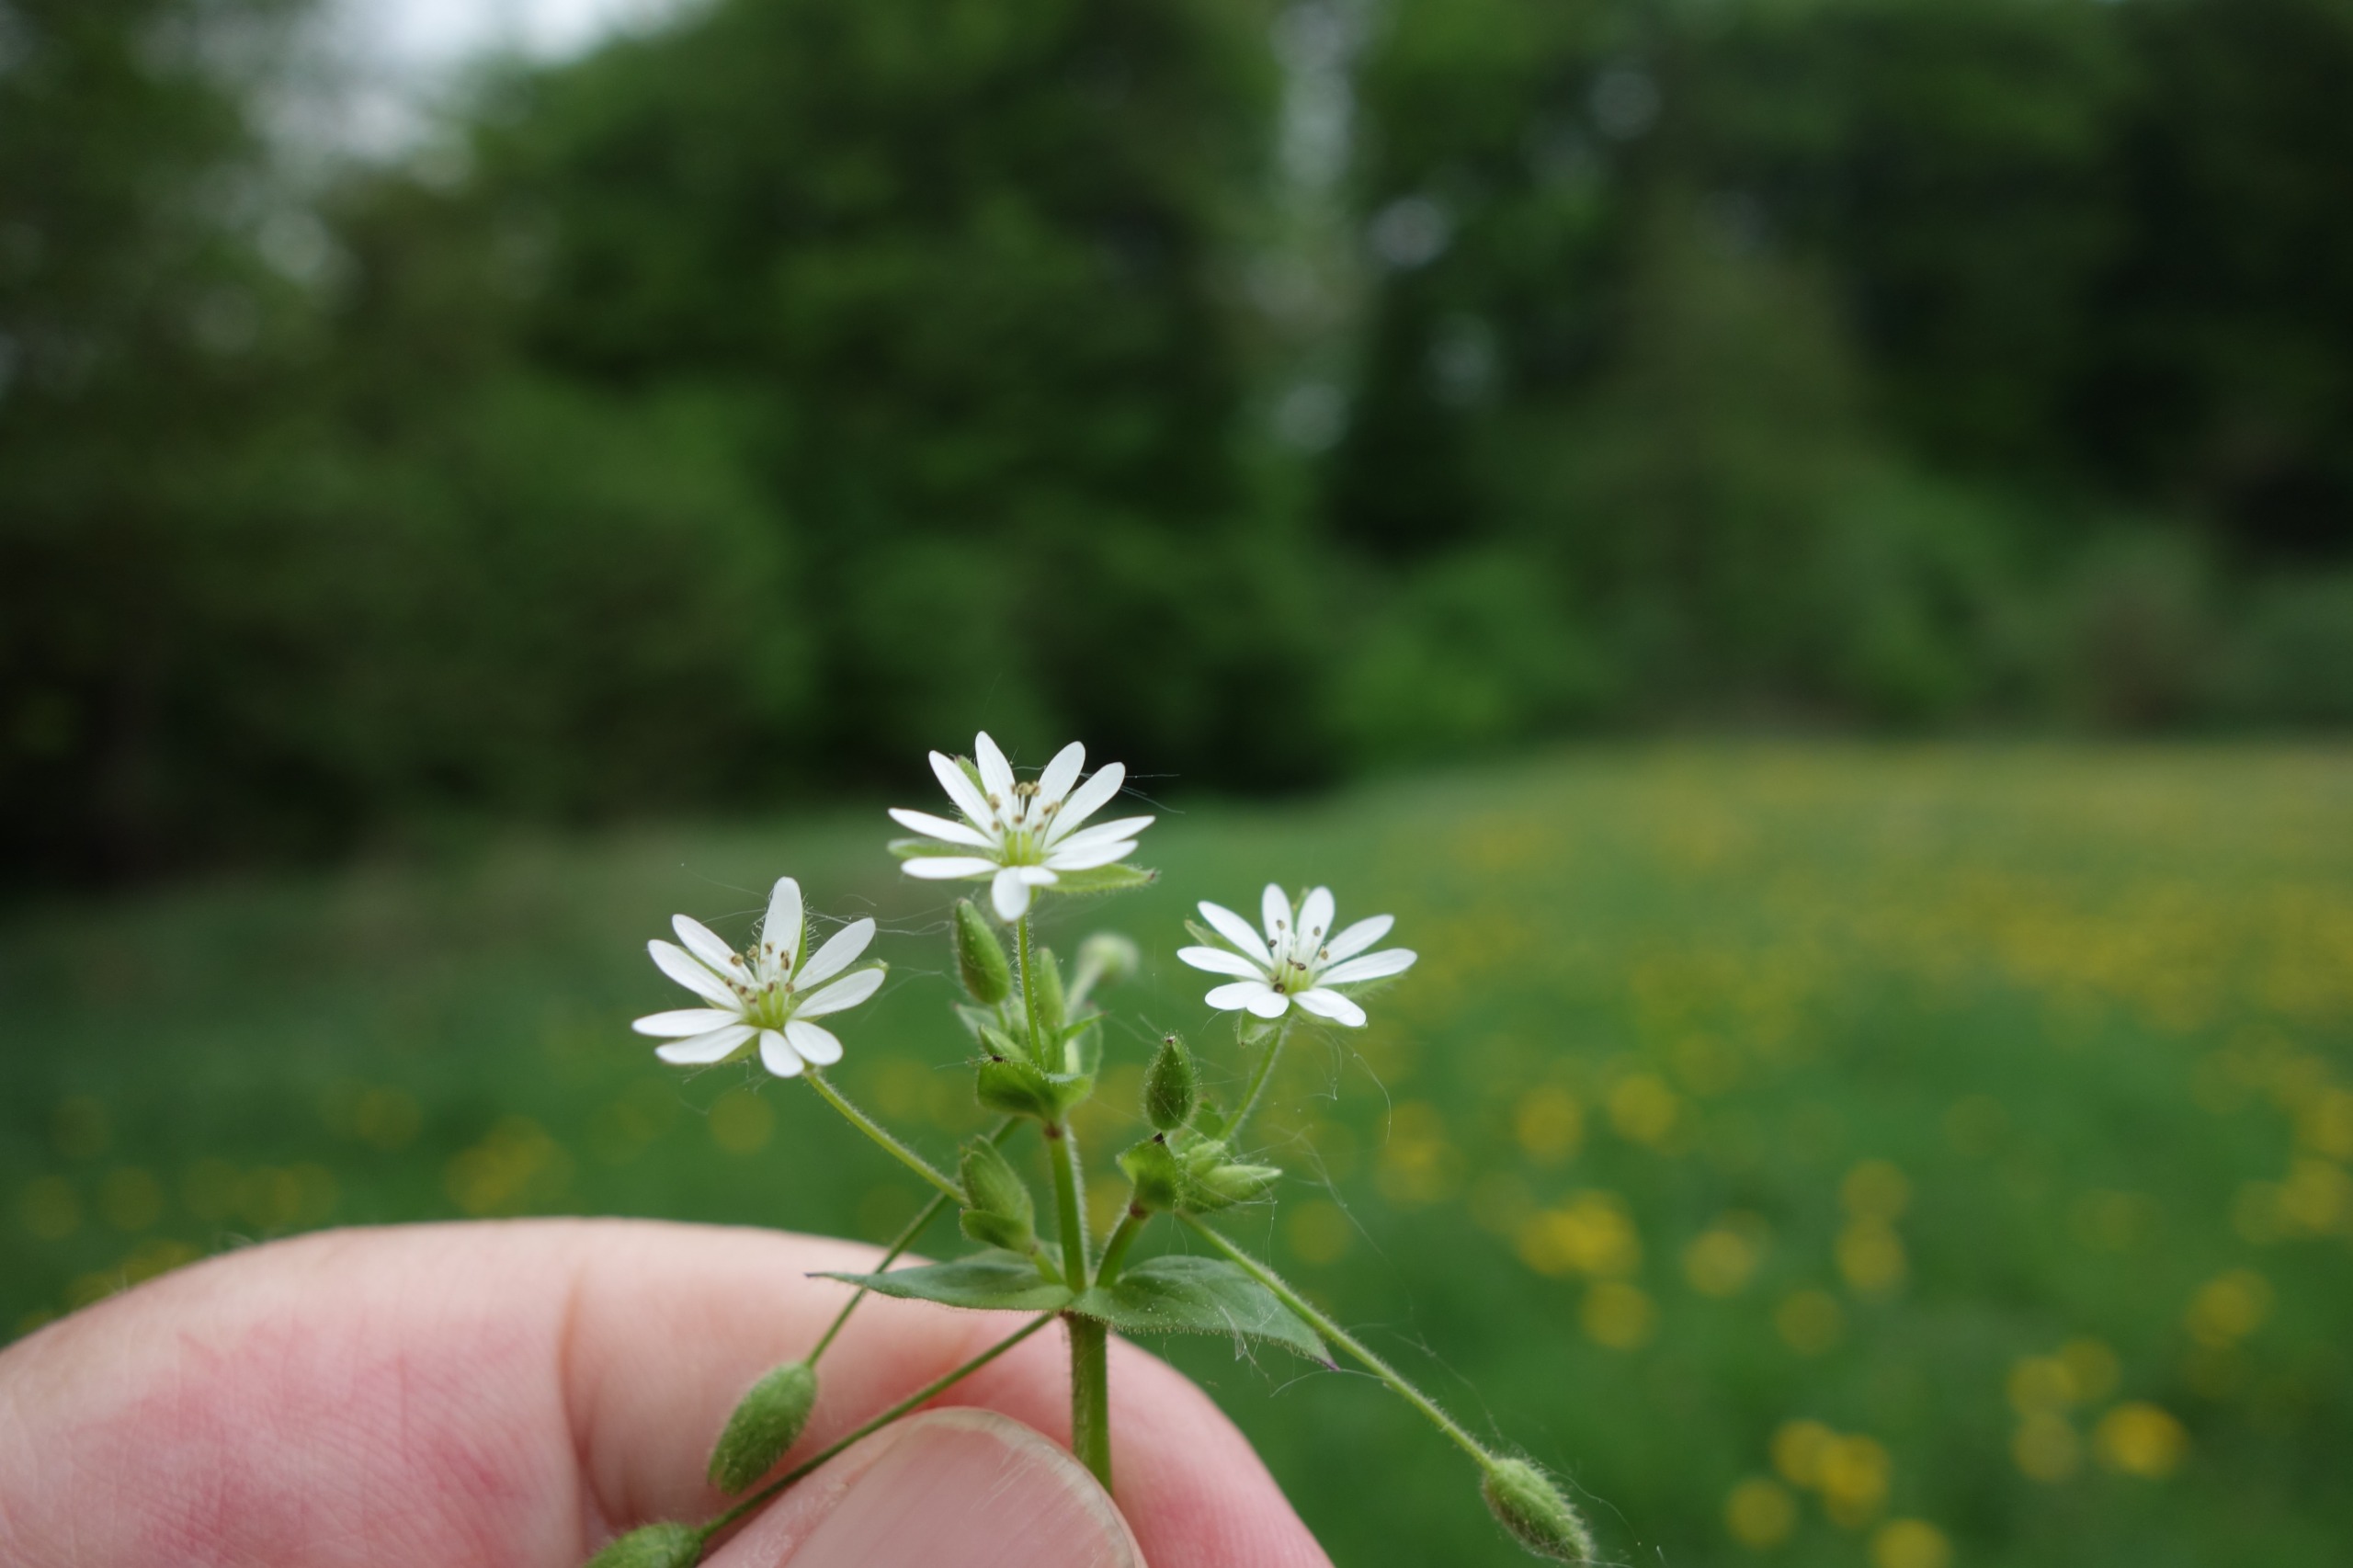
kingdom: Plantae
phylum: Tracheophyta
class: Magnoliopsida
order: Caryophyllales
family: Caryophyllaceae
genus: Stellaria
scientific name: Stellaria neglecta
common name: Skov-fuglegræs
